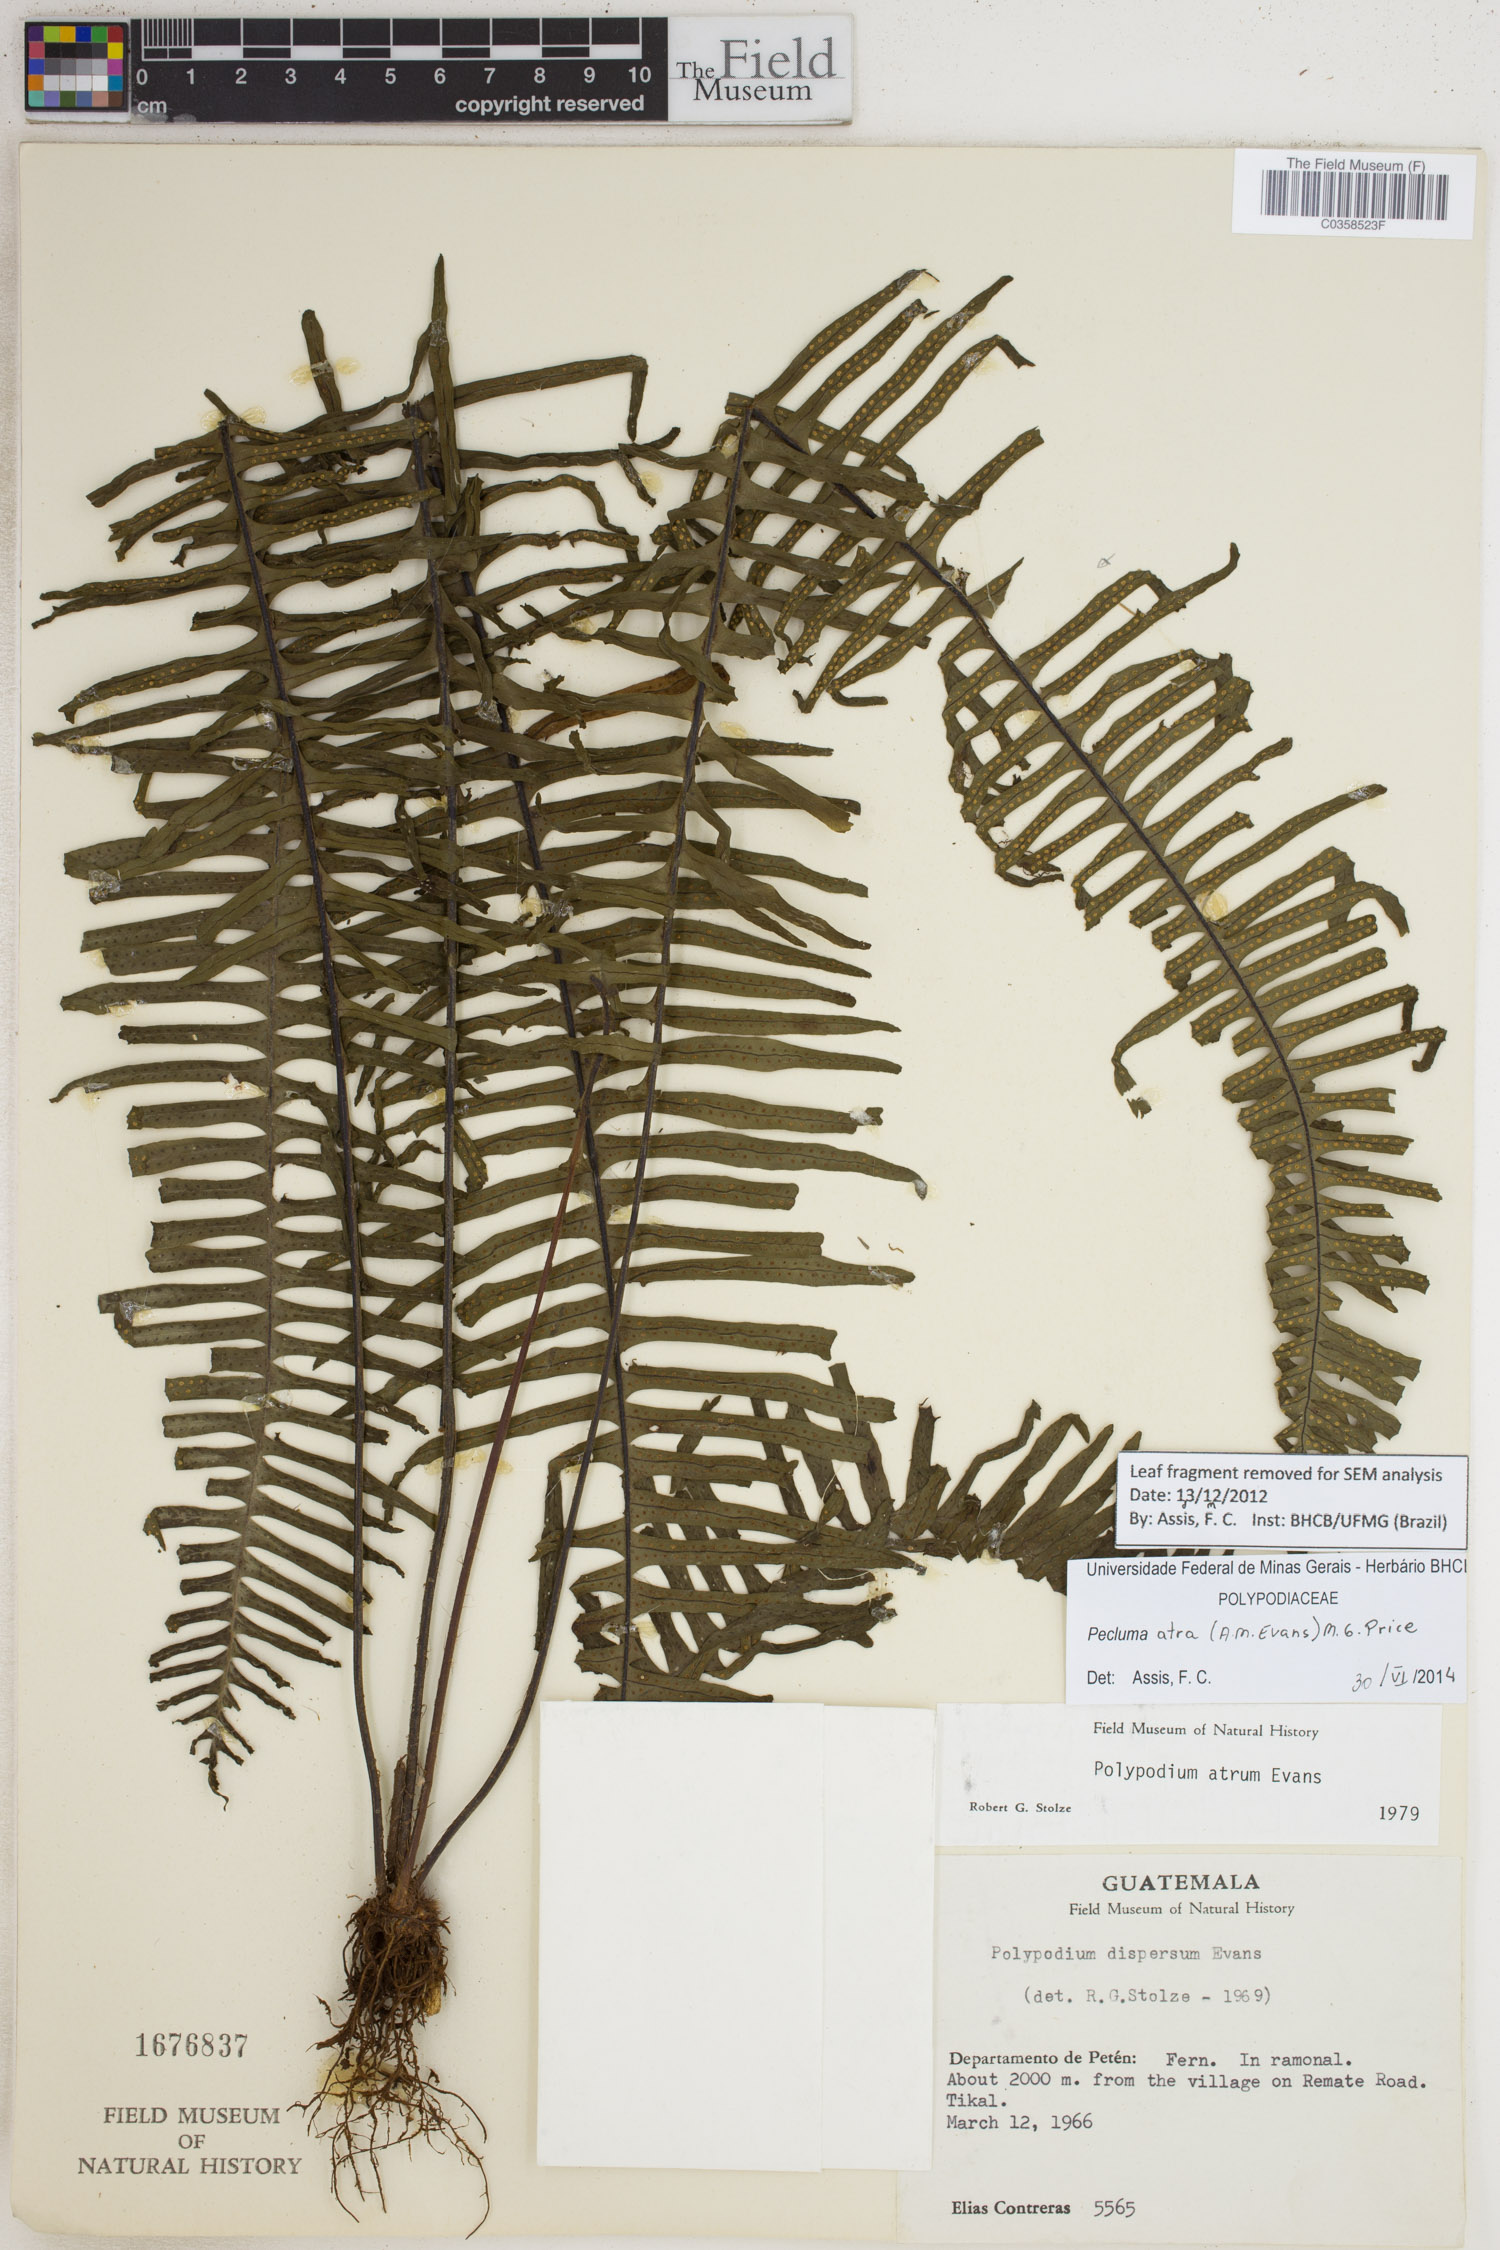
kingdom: Plantae
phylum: Tracheophyta
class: Polypodiopsida
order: Polypodiales
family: Polypodiaceae
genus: Pecluma
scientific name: Pecluma atra
